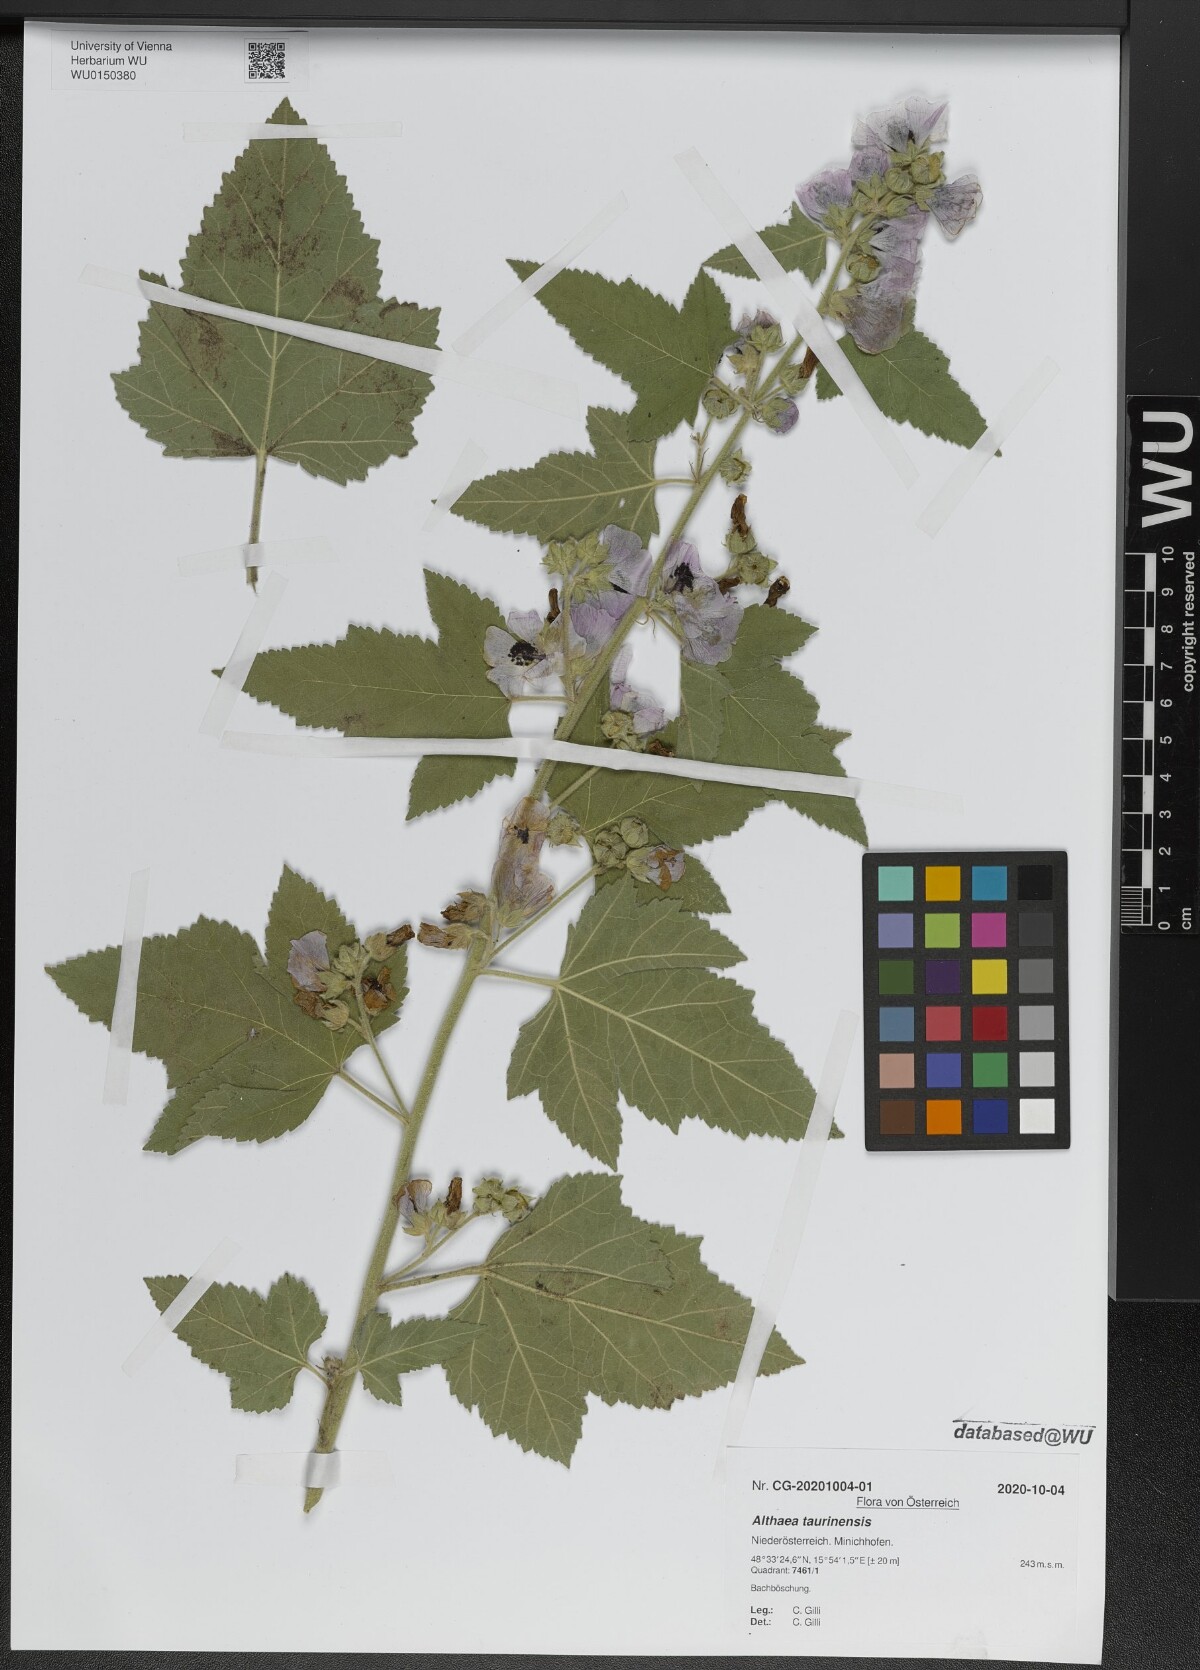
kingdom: Plantae
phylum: Tracheophyta
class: Magnoliopsida
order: Malvales
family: Malvaceae
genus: Althaea
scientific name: Althaea taurinensis
